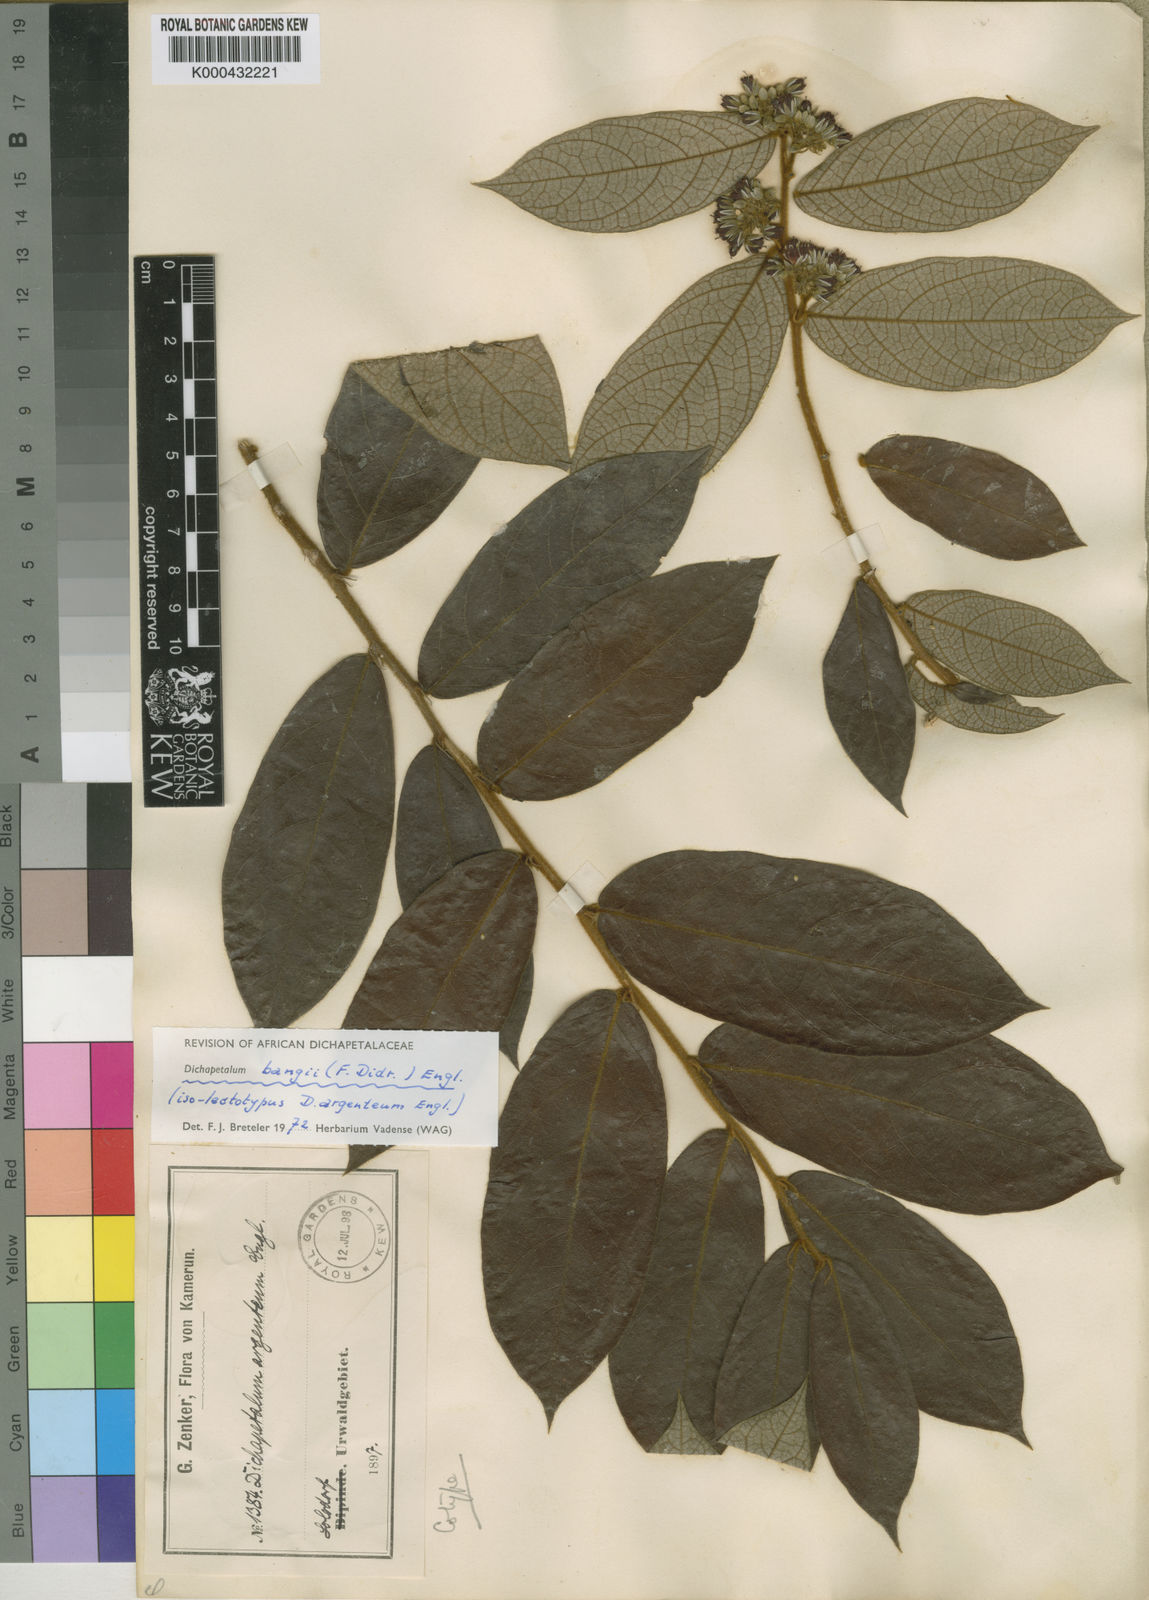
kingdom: Plantae
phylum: Tracheophyta
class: Magnoliopsida
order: Malpighiales
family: Dichapetalaceae
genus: Dichapetalum
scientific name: Dichapetalum bangii
